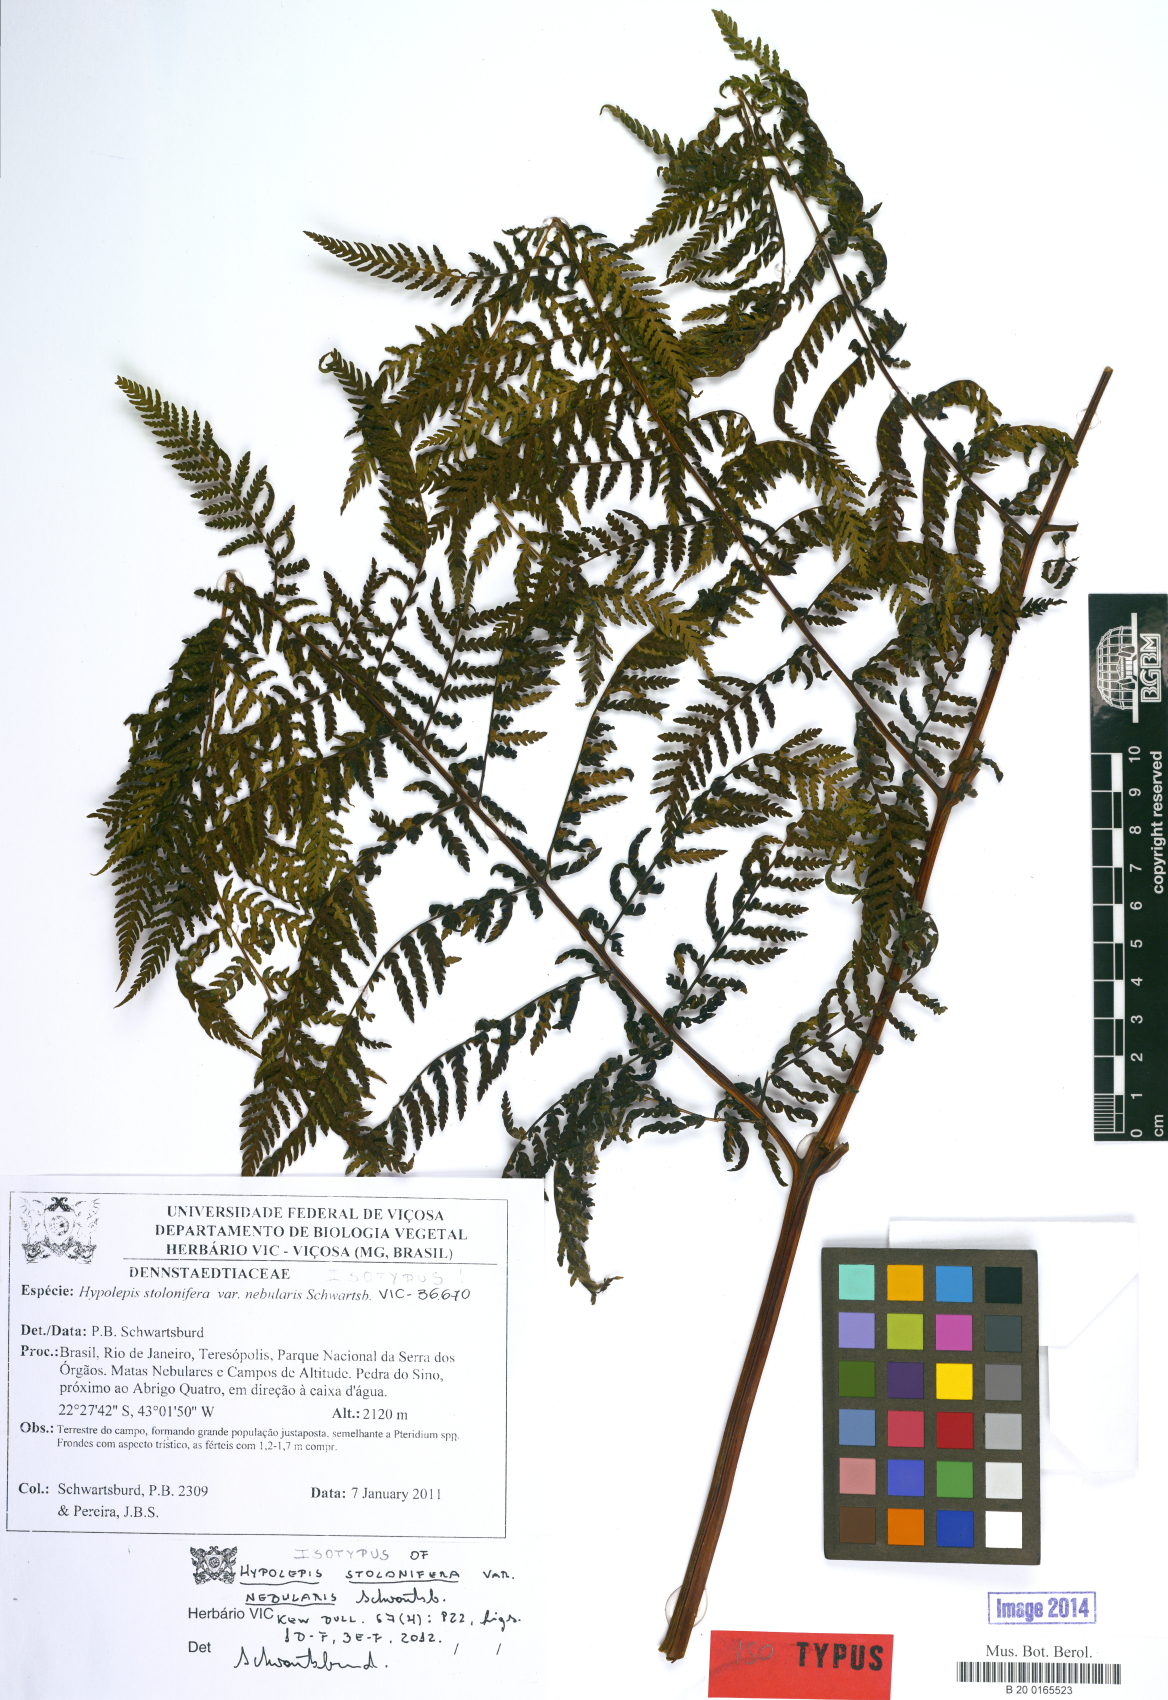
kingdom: Plantae
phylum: Tracheophyta
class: Polypodiopsida
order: Polypodiales
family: Dennstaedtiaceae
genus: Hypolepis
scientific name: Hypolepis stolonifera
